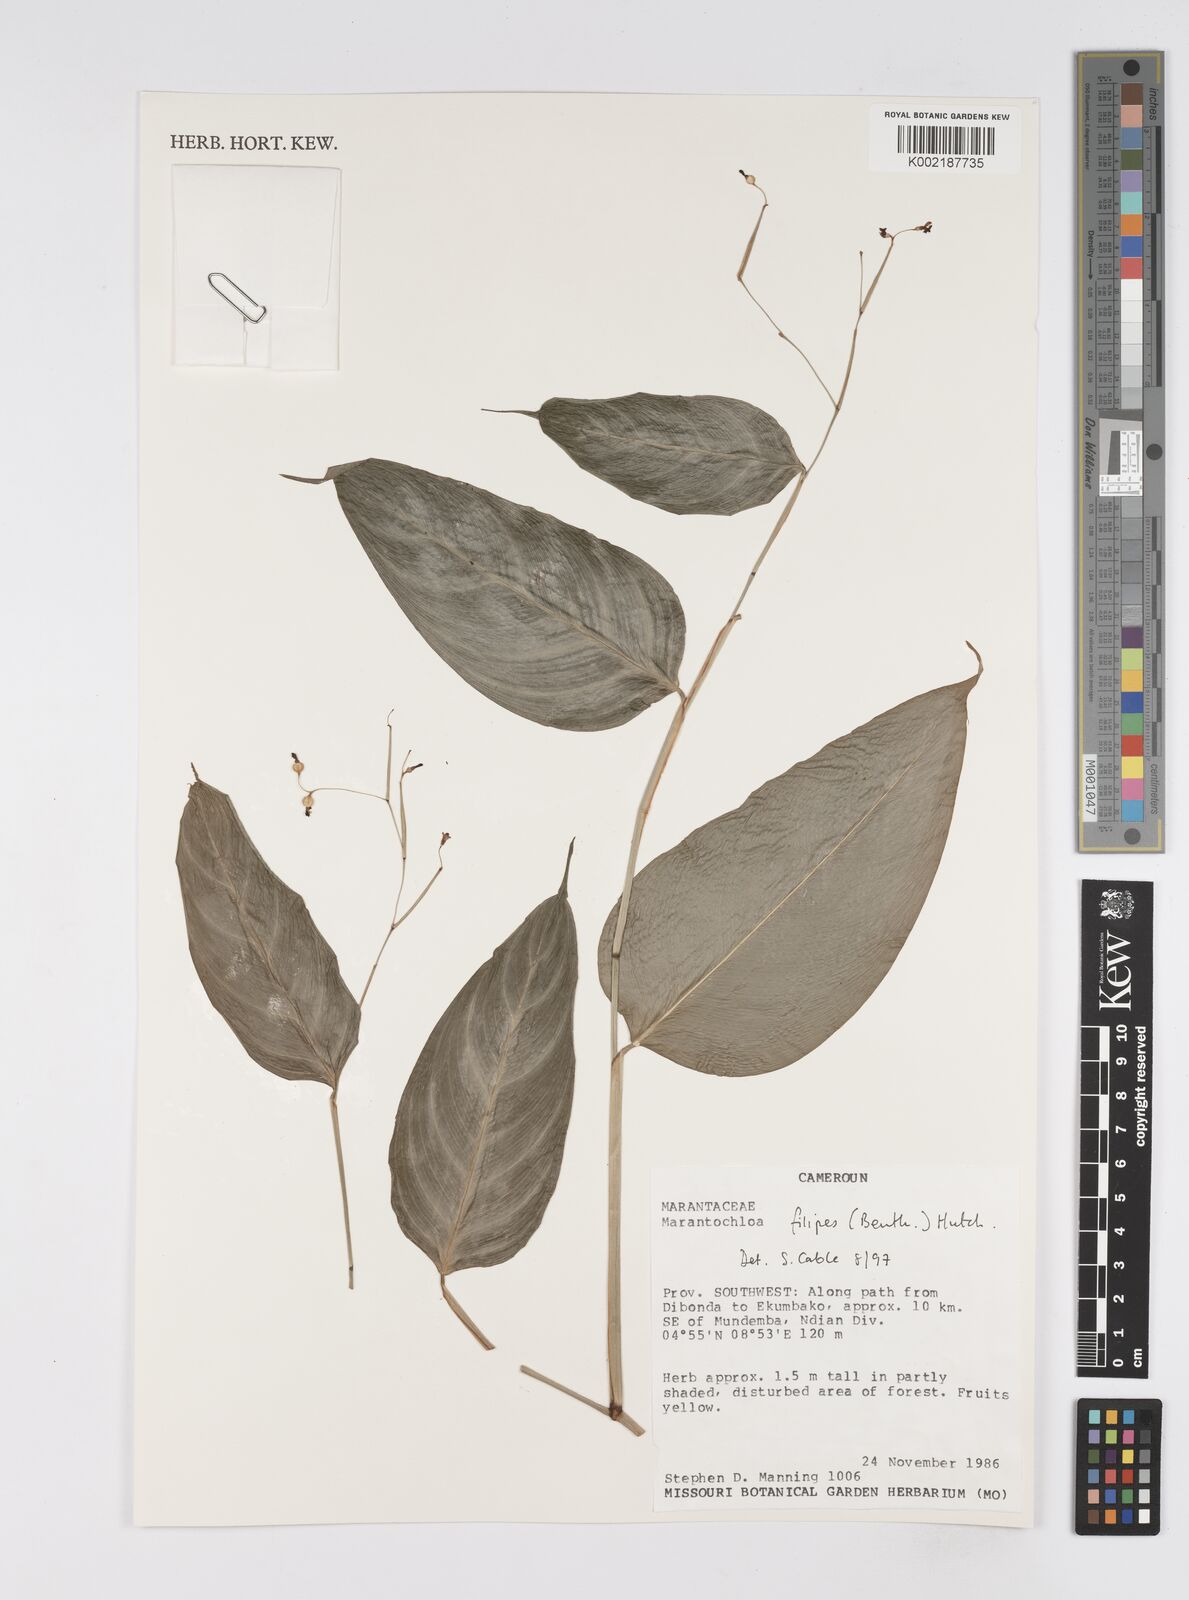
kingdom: Plantae
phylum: Tracheophyta
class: Liliopsida
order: Zingiberales
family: Marantaceae
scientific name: Marantaceae
